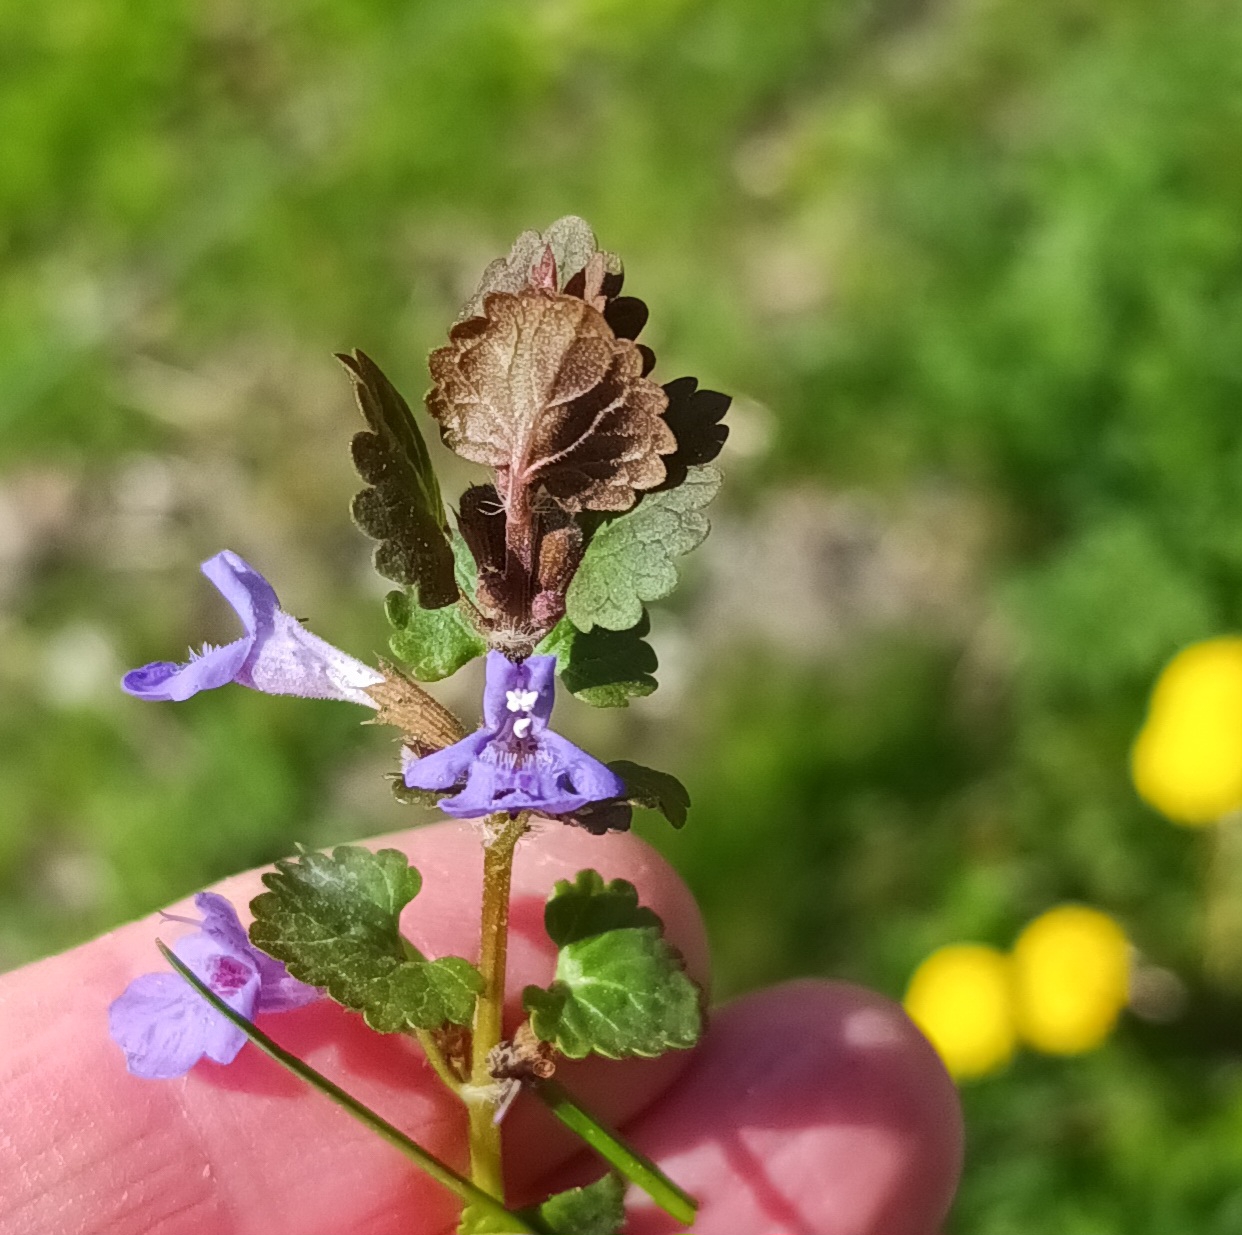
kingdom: Plantae
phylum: Tracheophyta
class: Magnoliopsida
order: Lamiales
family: Lamiaceae
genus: Glechoma
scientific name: Glechoma hederacea
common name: Korsknap
